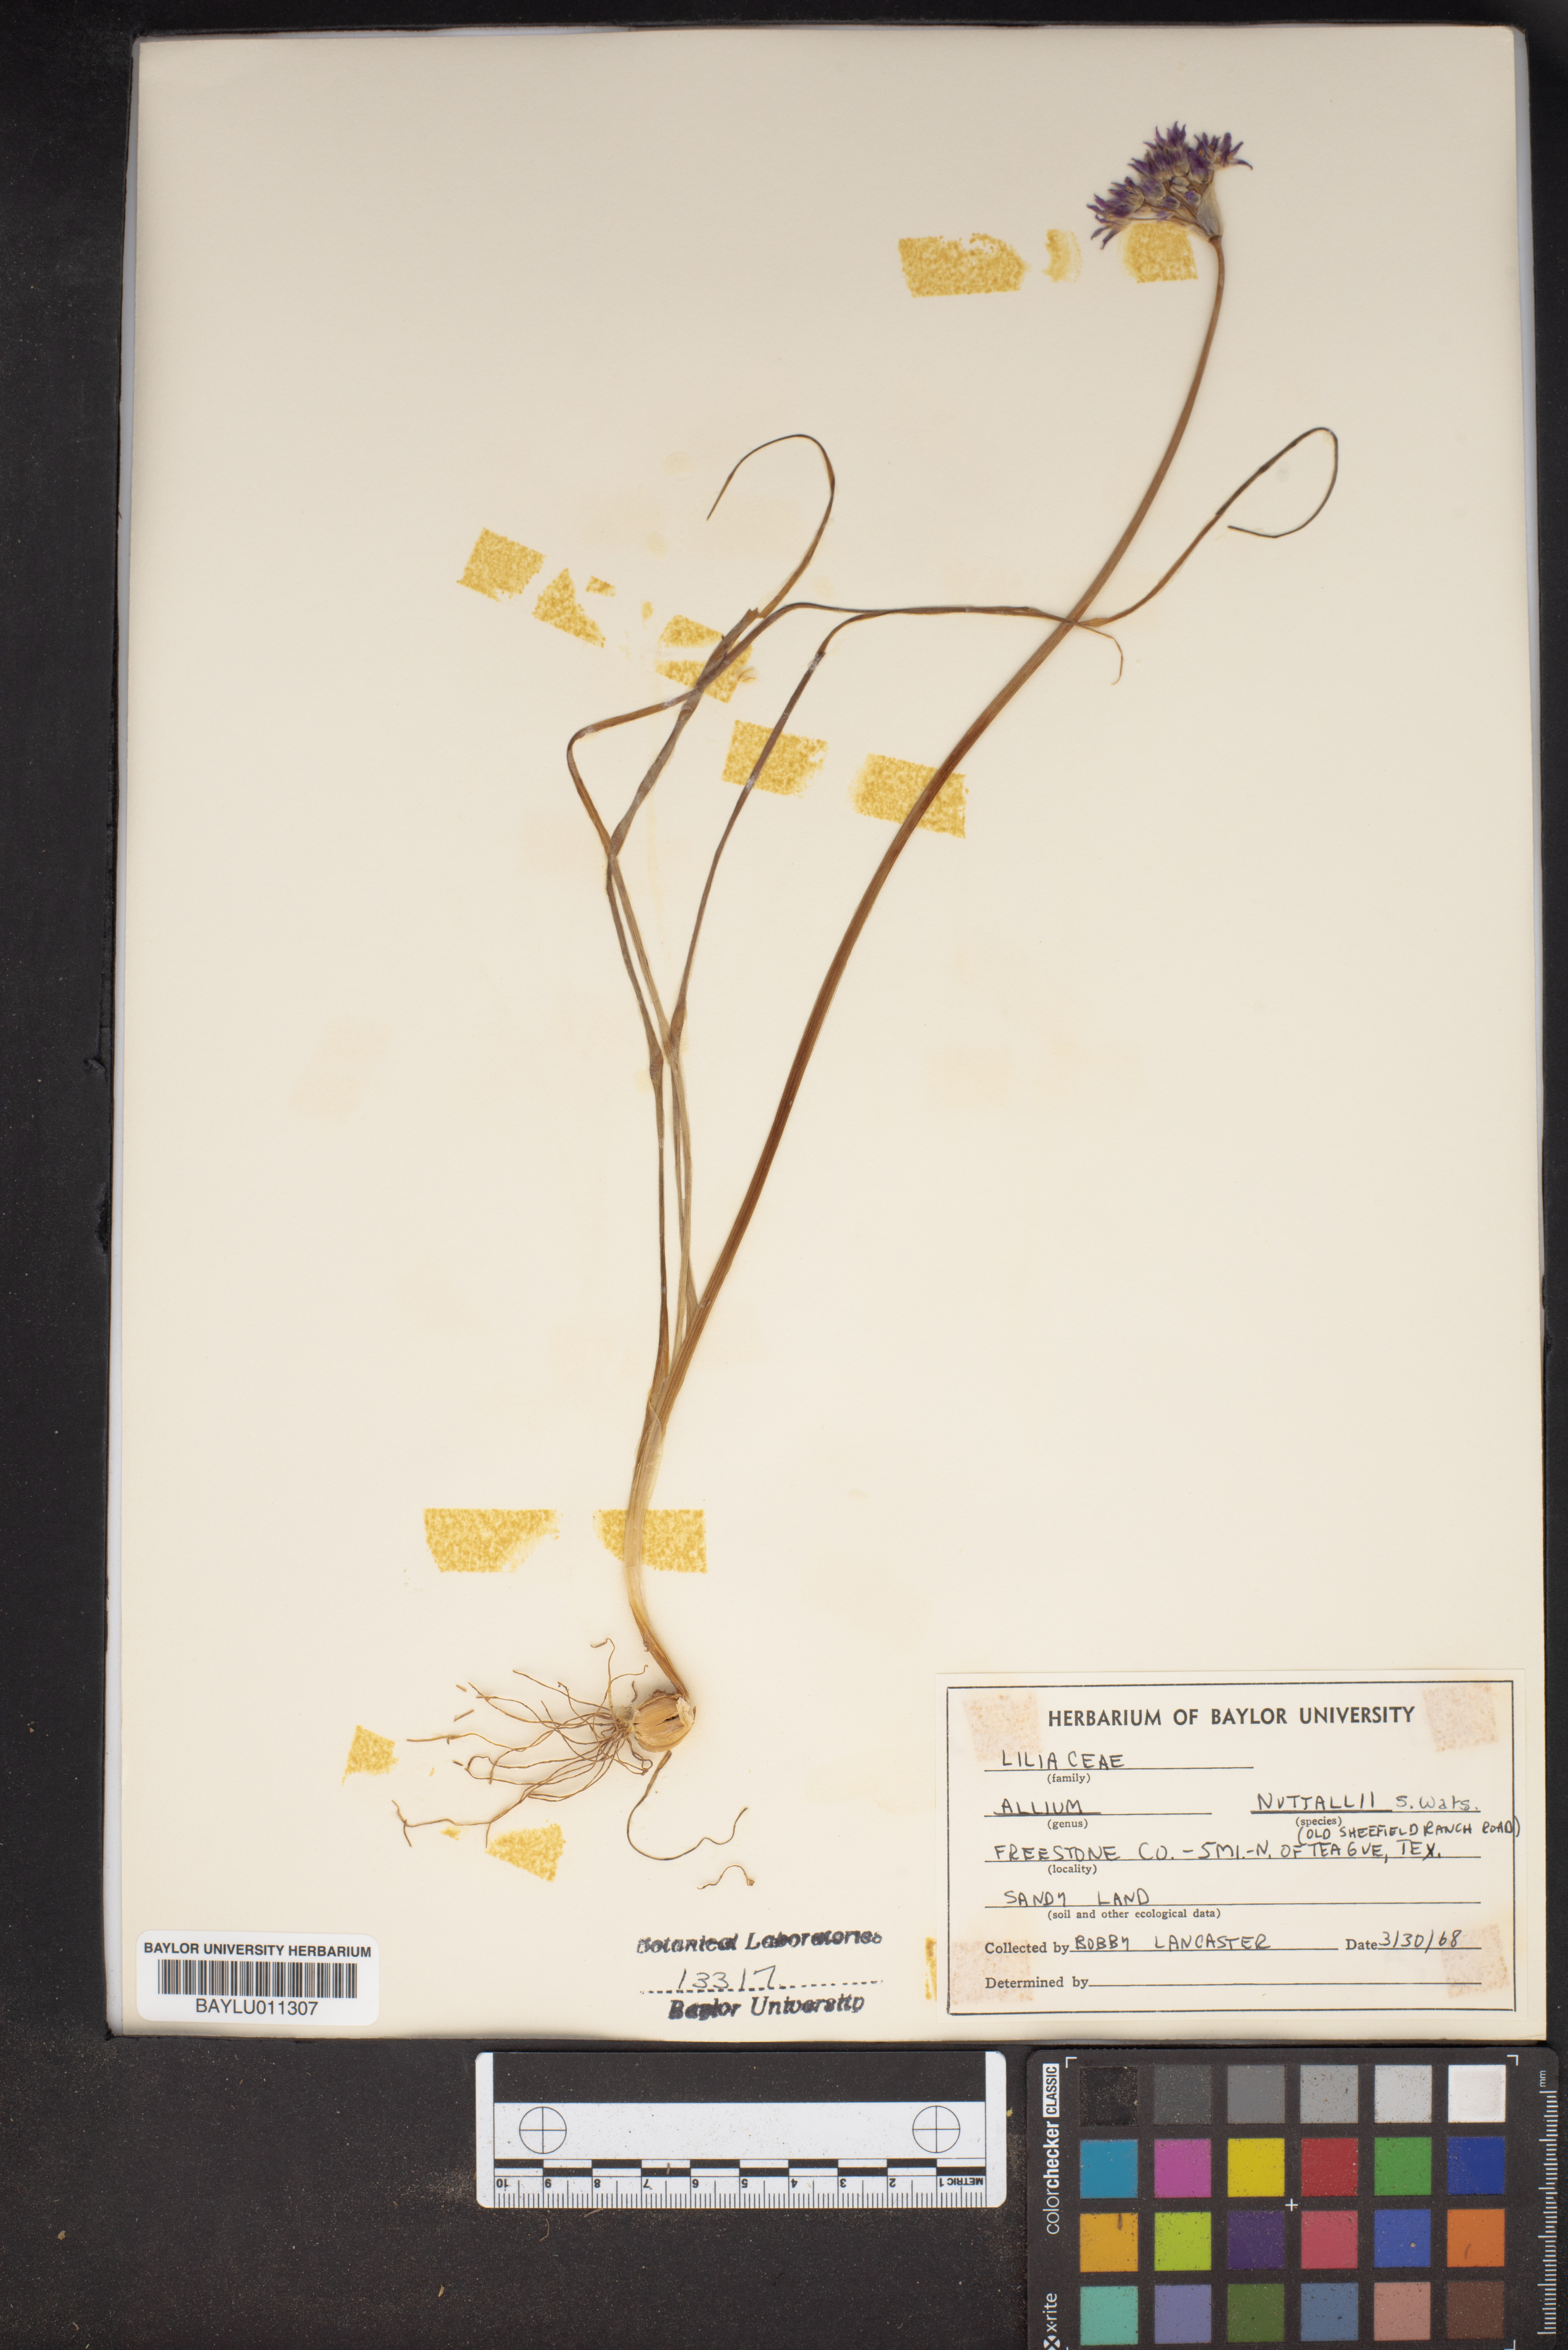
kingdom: Plantae
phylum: Tracheophyta
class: Liliopsida
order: Asparagales
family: Amaryllidaceae
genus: Allium
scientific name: Allium drummondii
